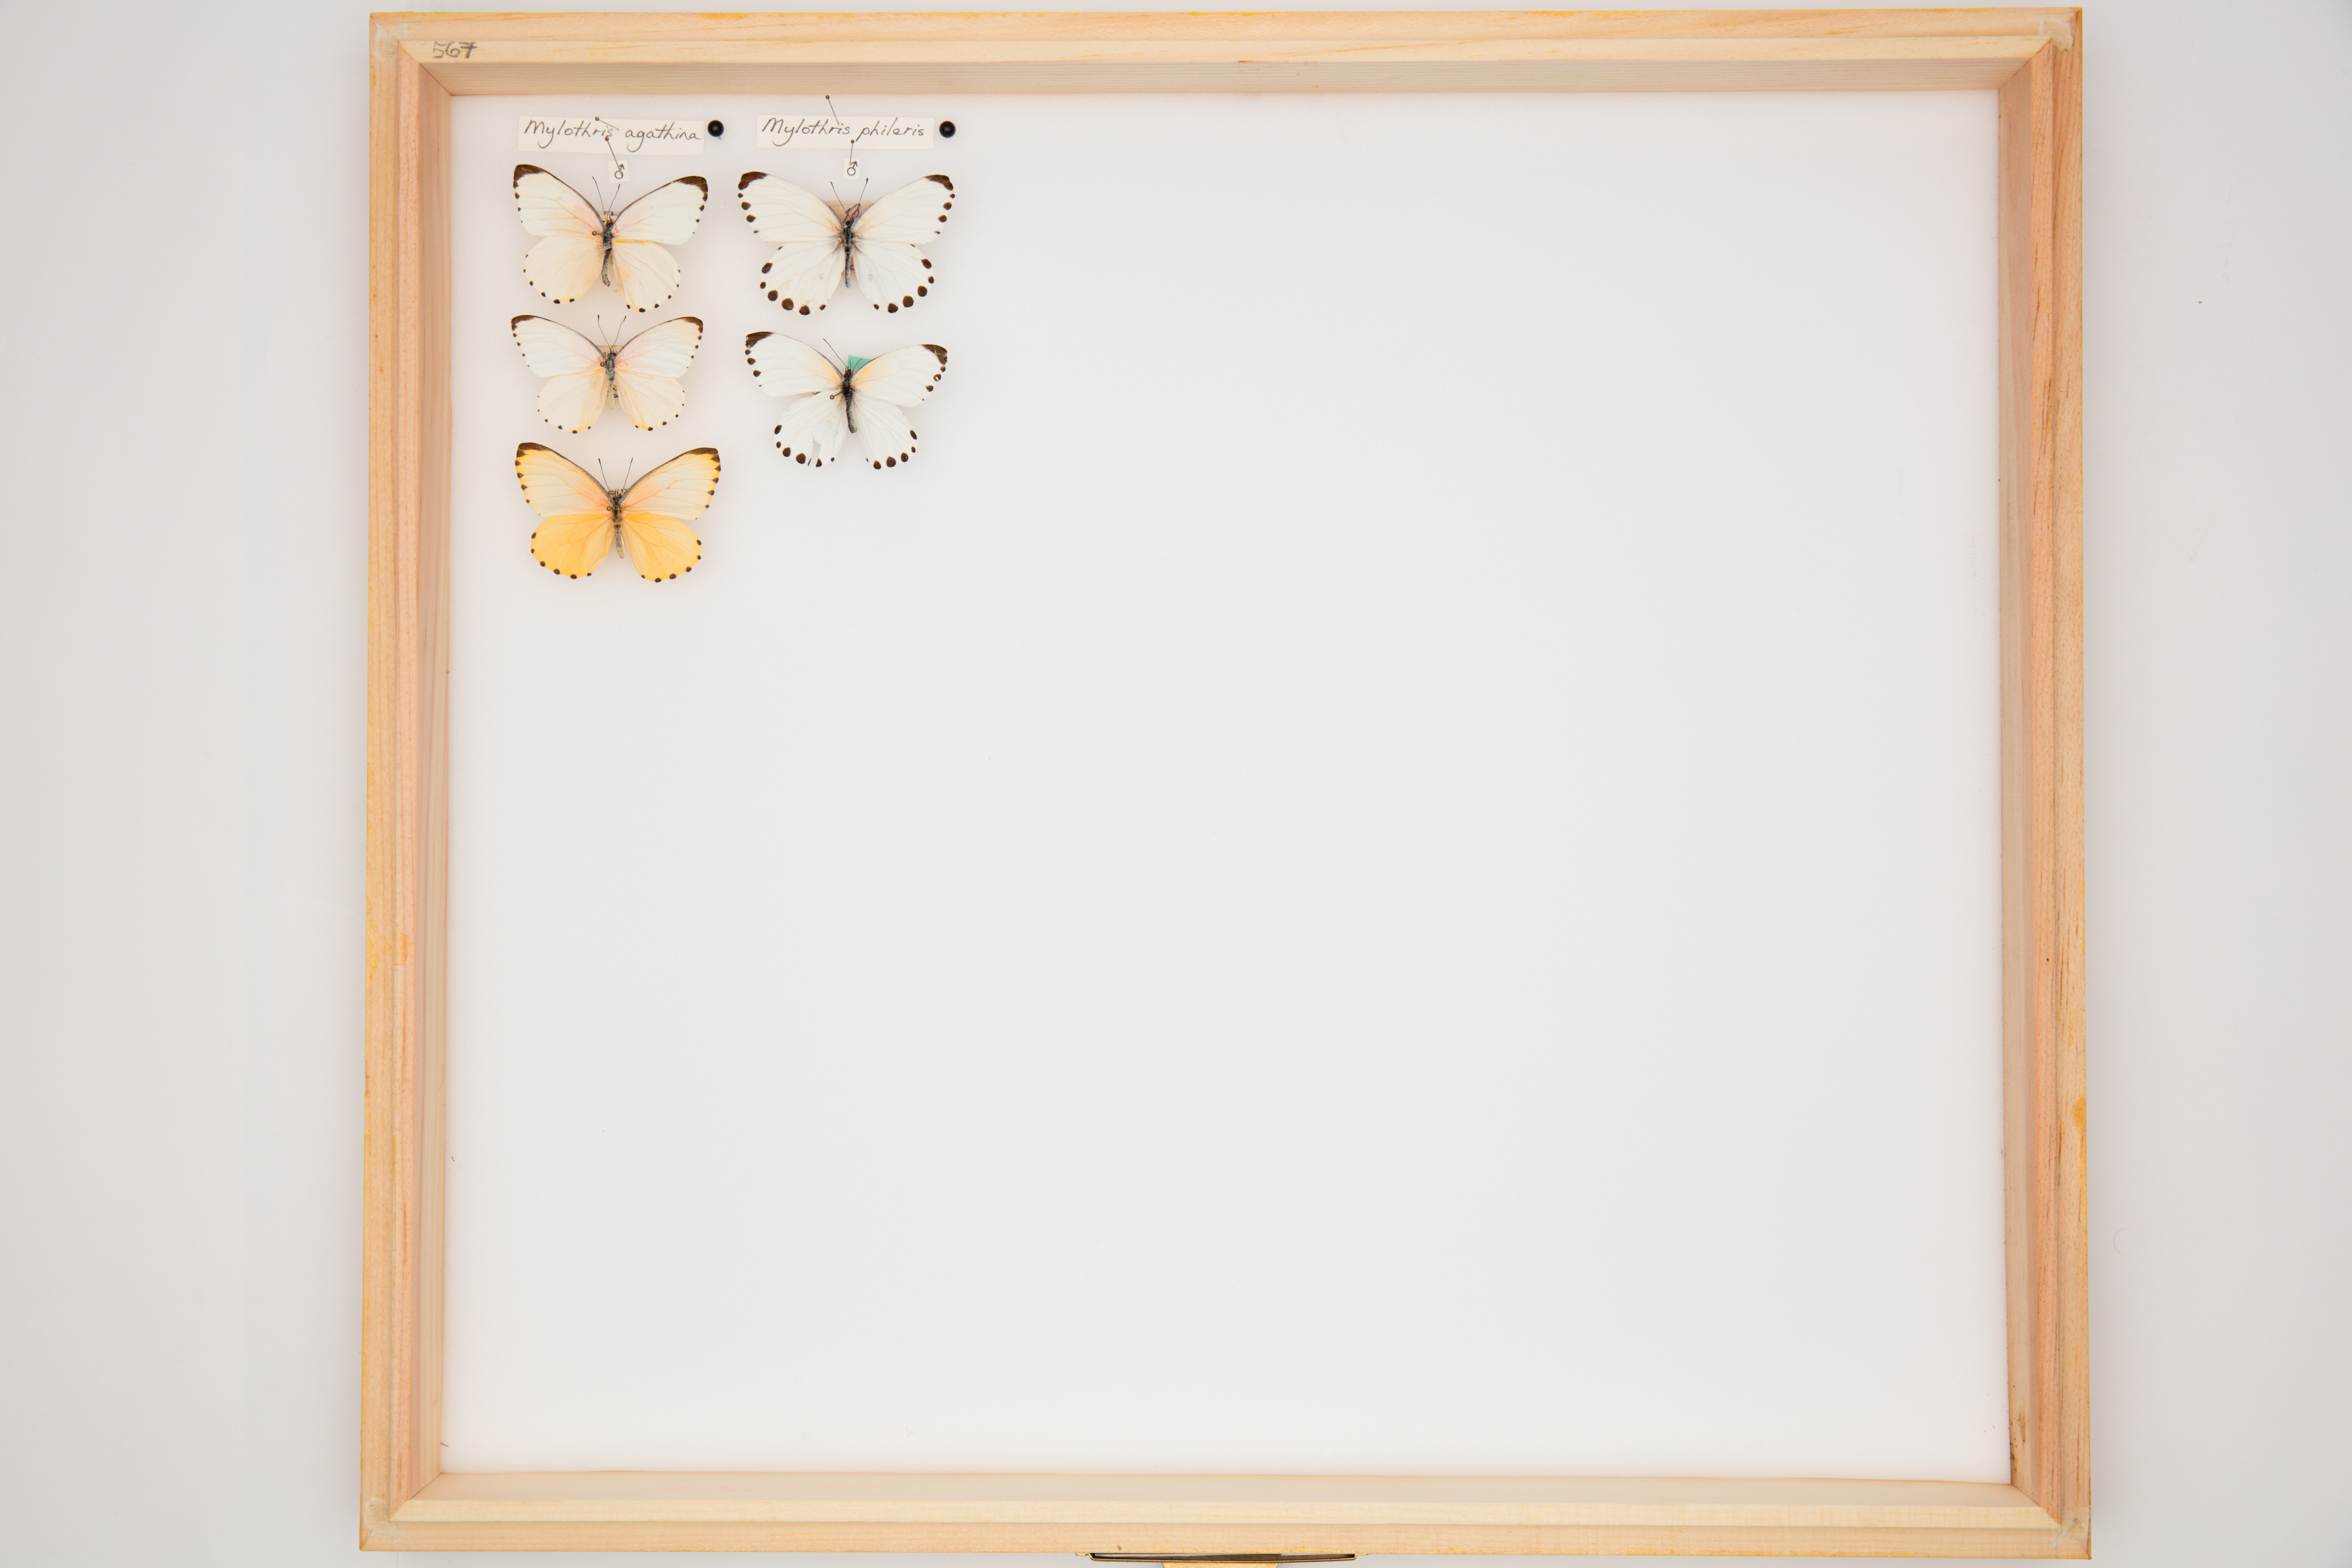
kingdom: Animalia
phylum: Arthropoda
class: Insecta
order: Lepidoptera
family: Pieridae
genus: Mylothris
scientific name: Mylothris chloris
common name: Western dotted border
